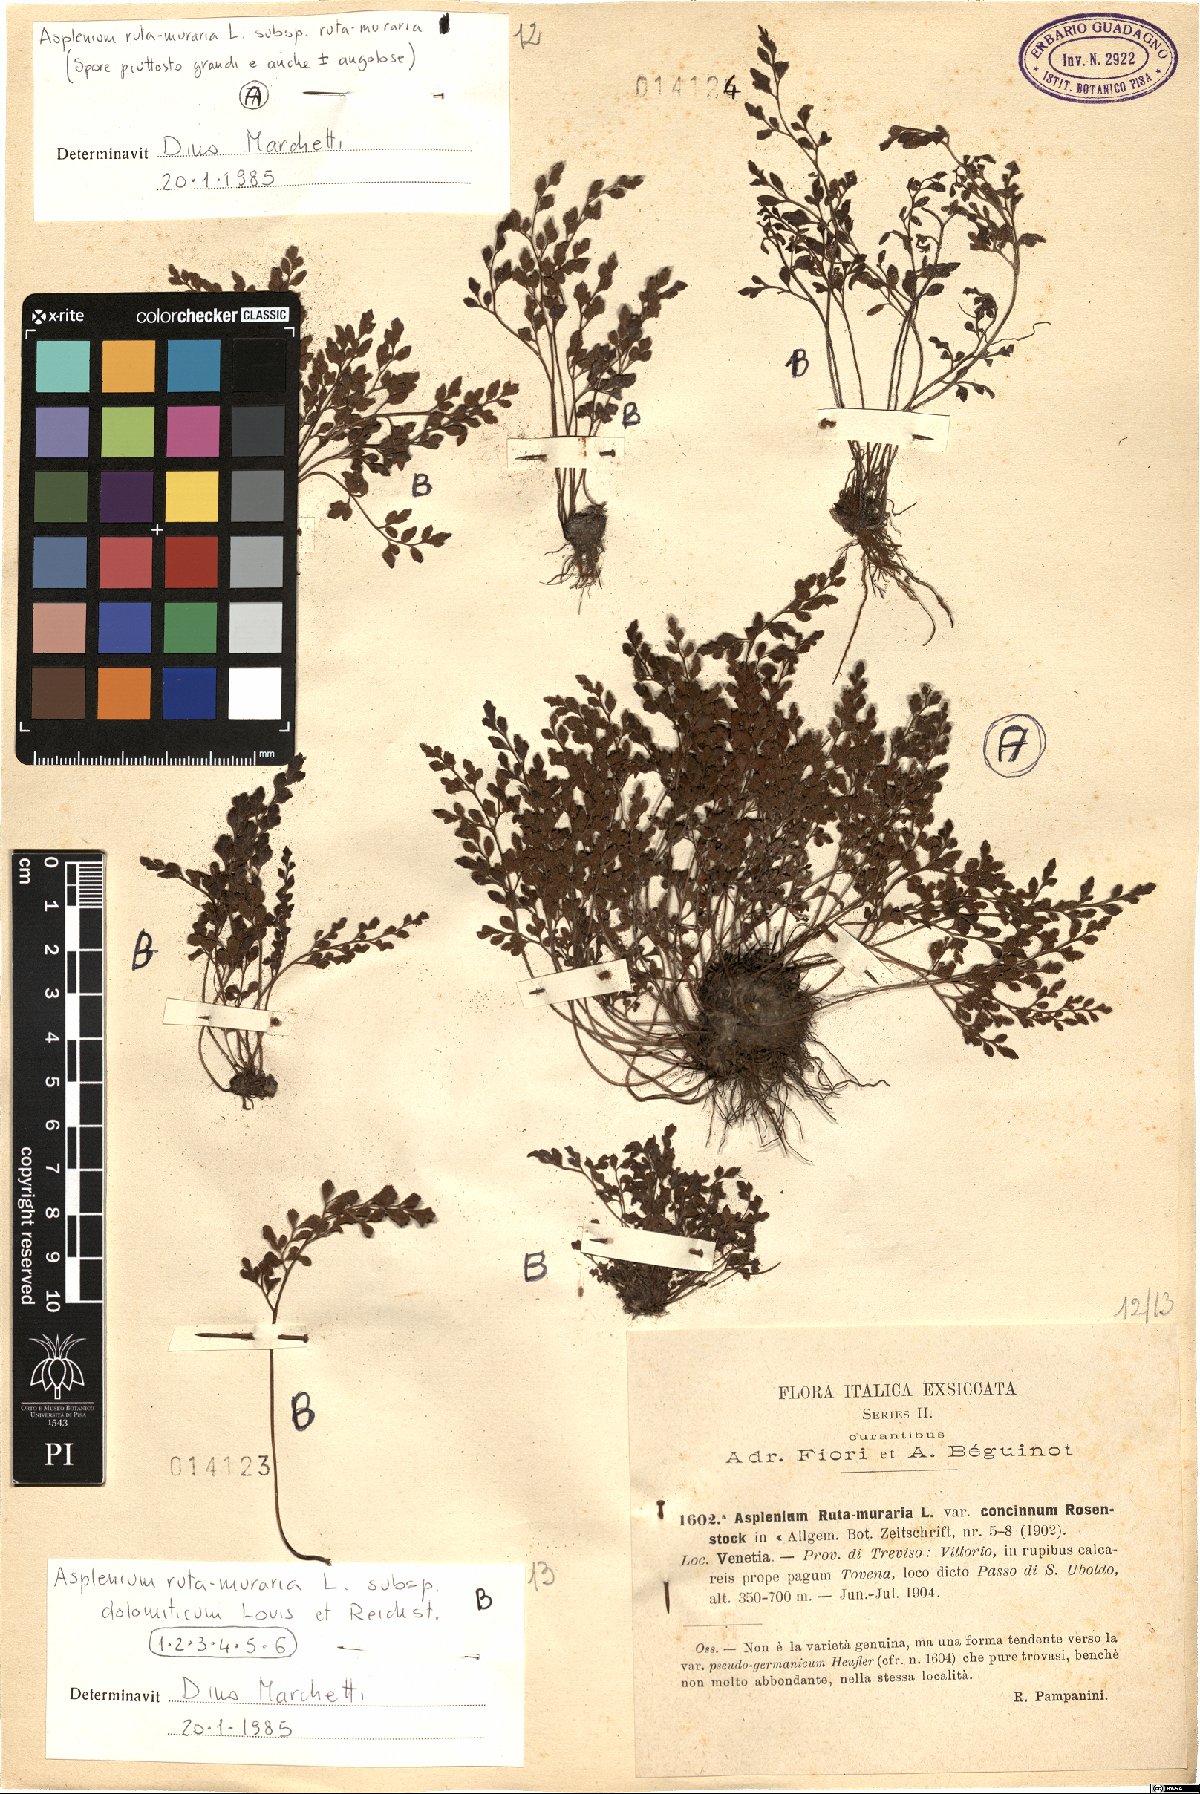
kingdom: Plantae
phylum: Tracheophyta
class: Polypodiopsida
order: Polypodiales
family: Aspleniaceae
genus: Asplenium
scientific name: Asplenium ruta-muraria
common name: Wall-rue
